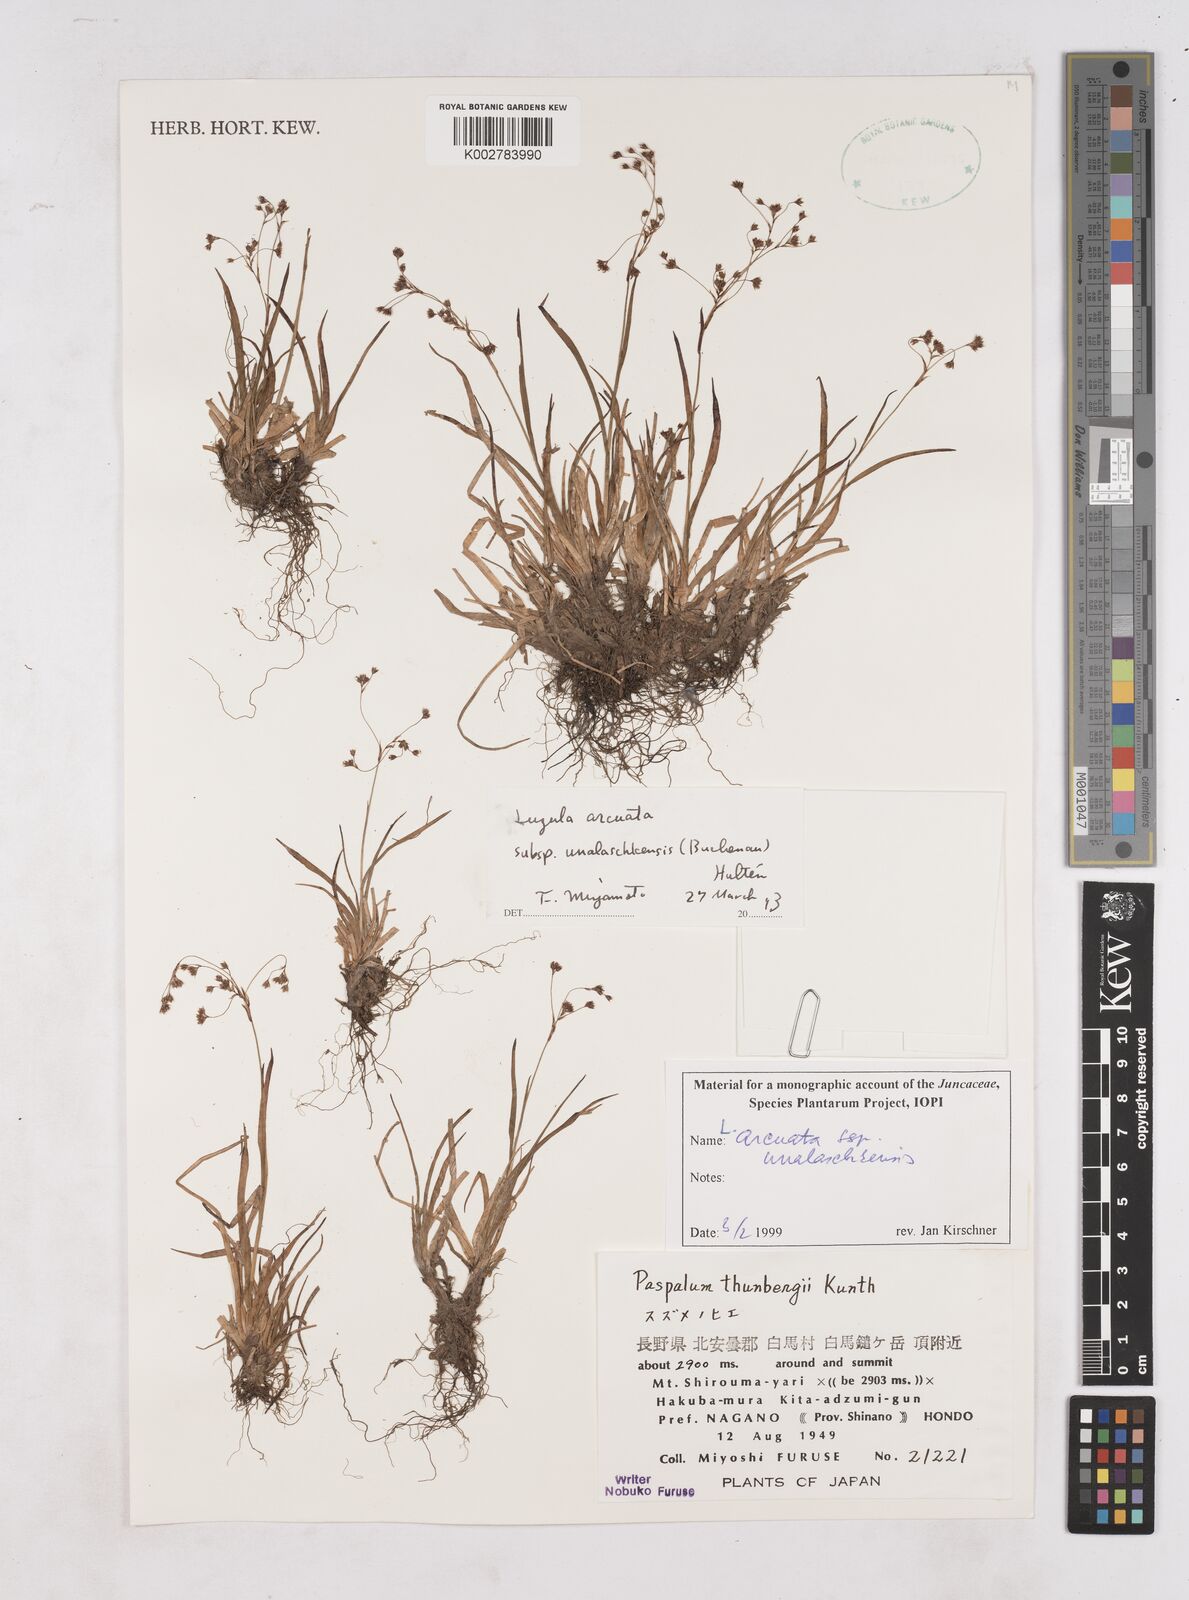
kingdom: Plantae
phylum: Tracheophyta
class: Liliopsida
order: Poales
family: Juncaceae
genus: Luzula
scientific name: Luzula arcuata
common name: Curved wood-rush
